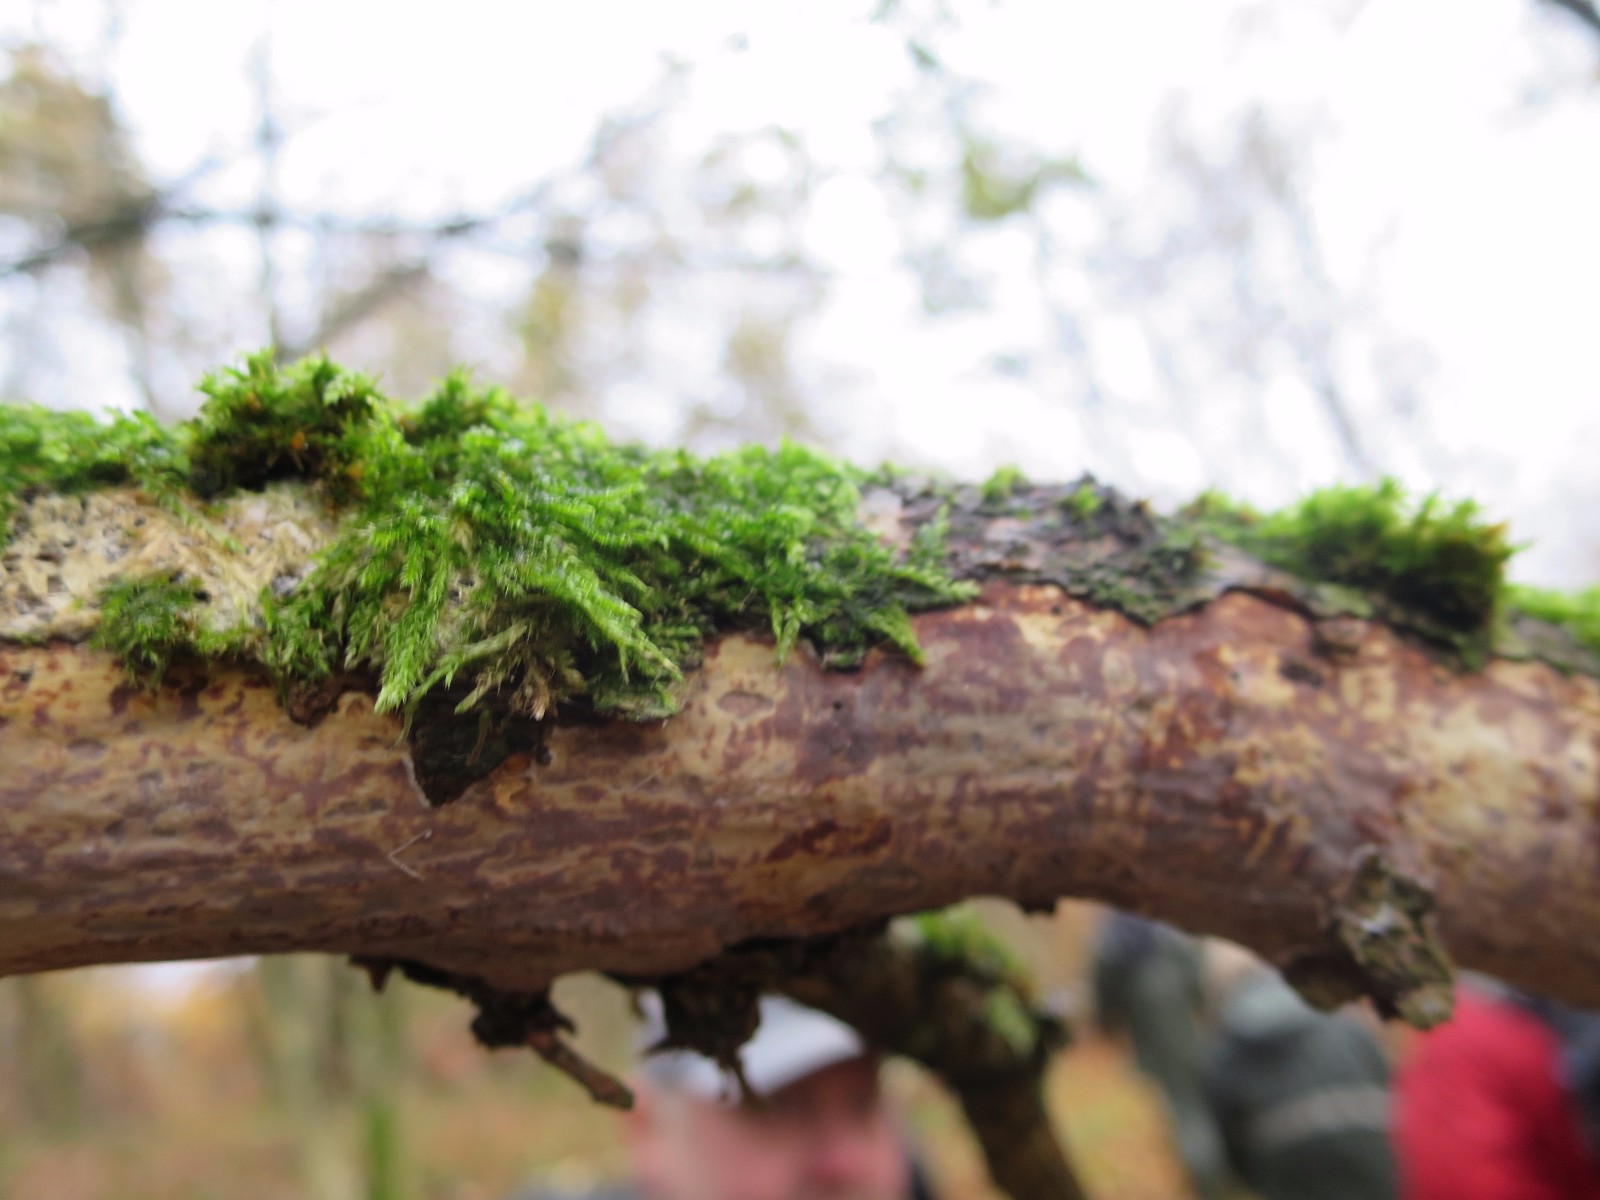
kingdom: Fungi
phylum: Basidiomycota
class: Agaricomycetes
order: Corticiales
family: Vuilleminiaceae
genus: Vuilleminia
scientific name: Vuilleminia comedens
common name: almindelig barksprænger
